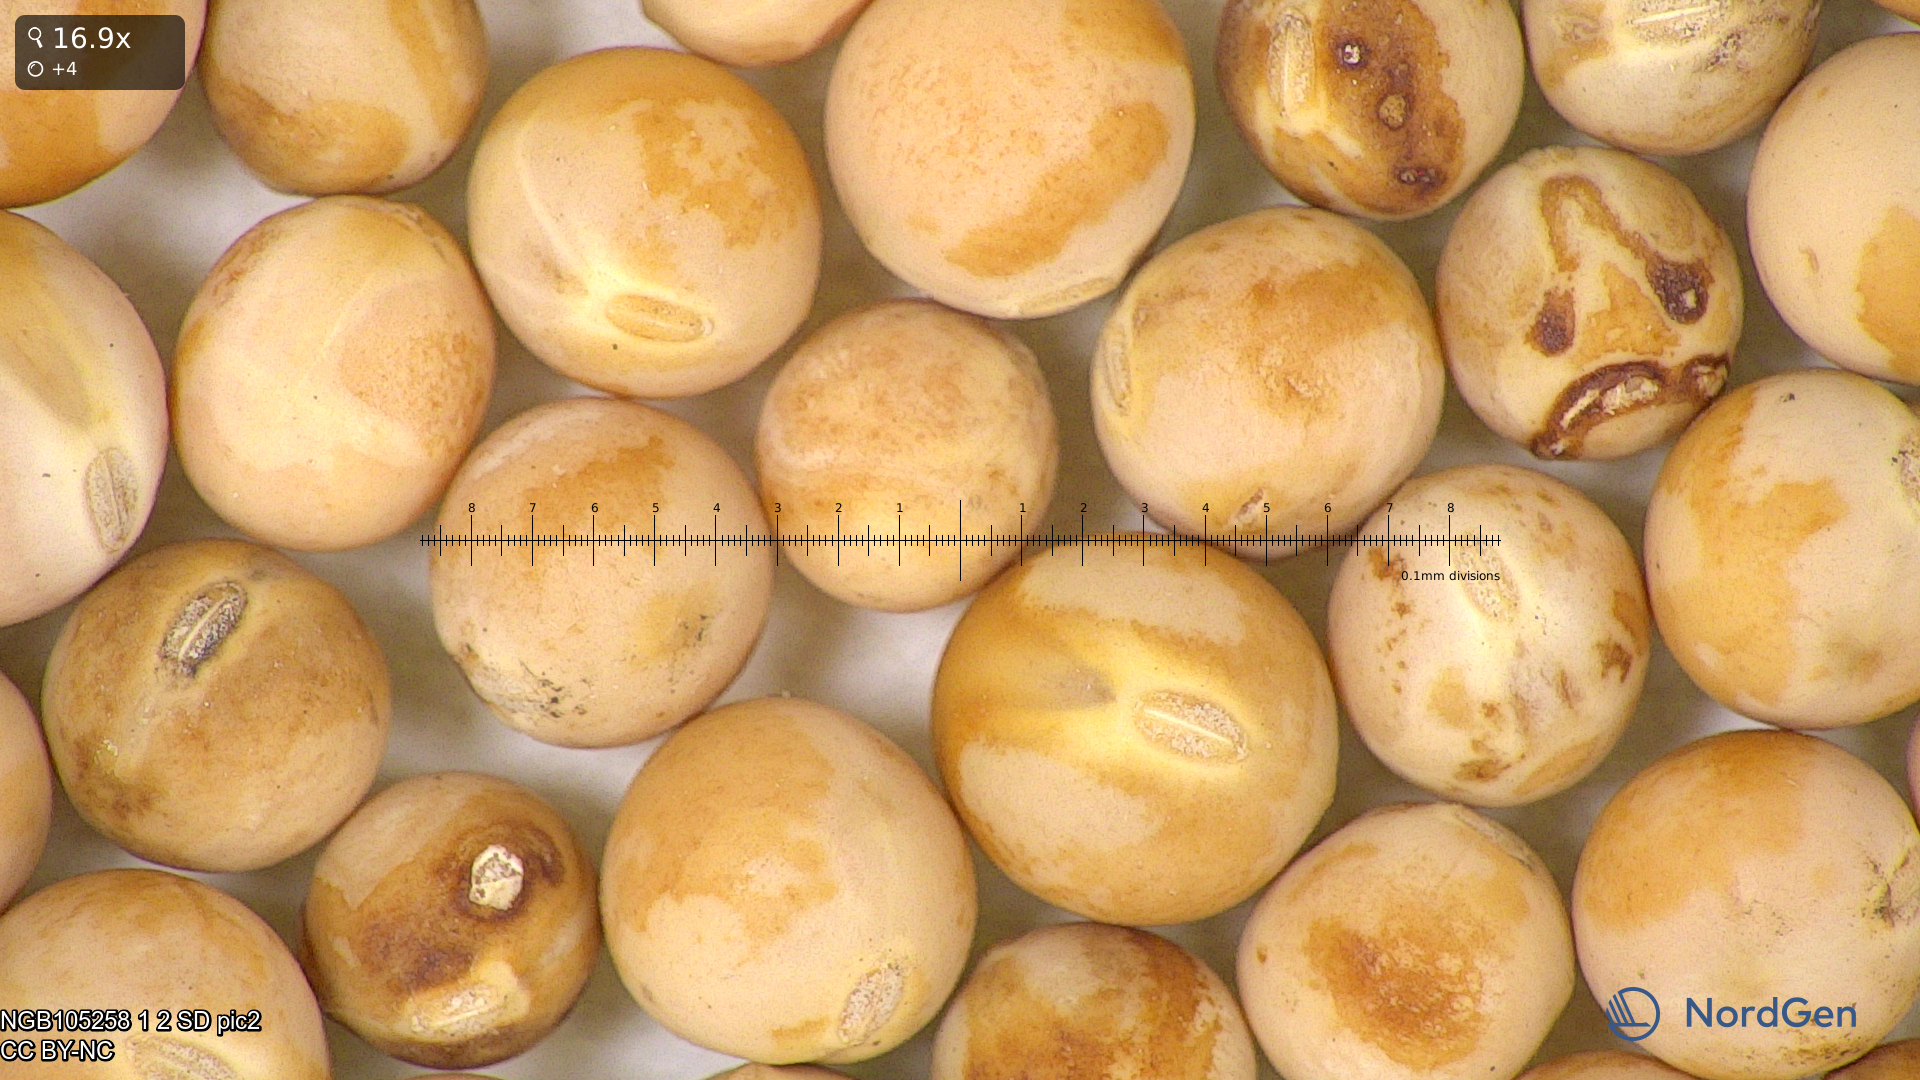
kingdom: Plantae
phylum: Tracheophyta
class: Magnoliopsida
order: Fabales
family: Fabaceae
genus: Lathyrus
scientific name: Lathyrus oleraceus
